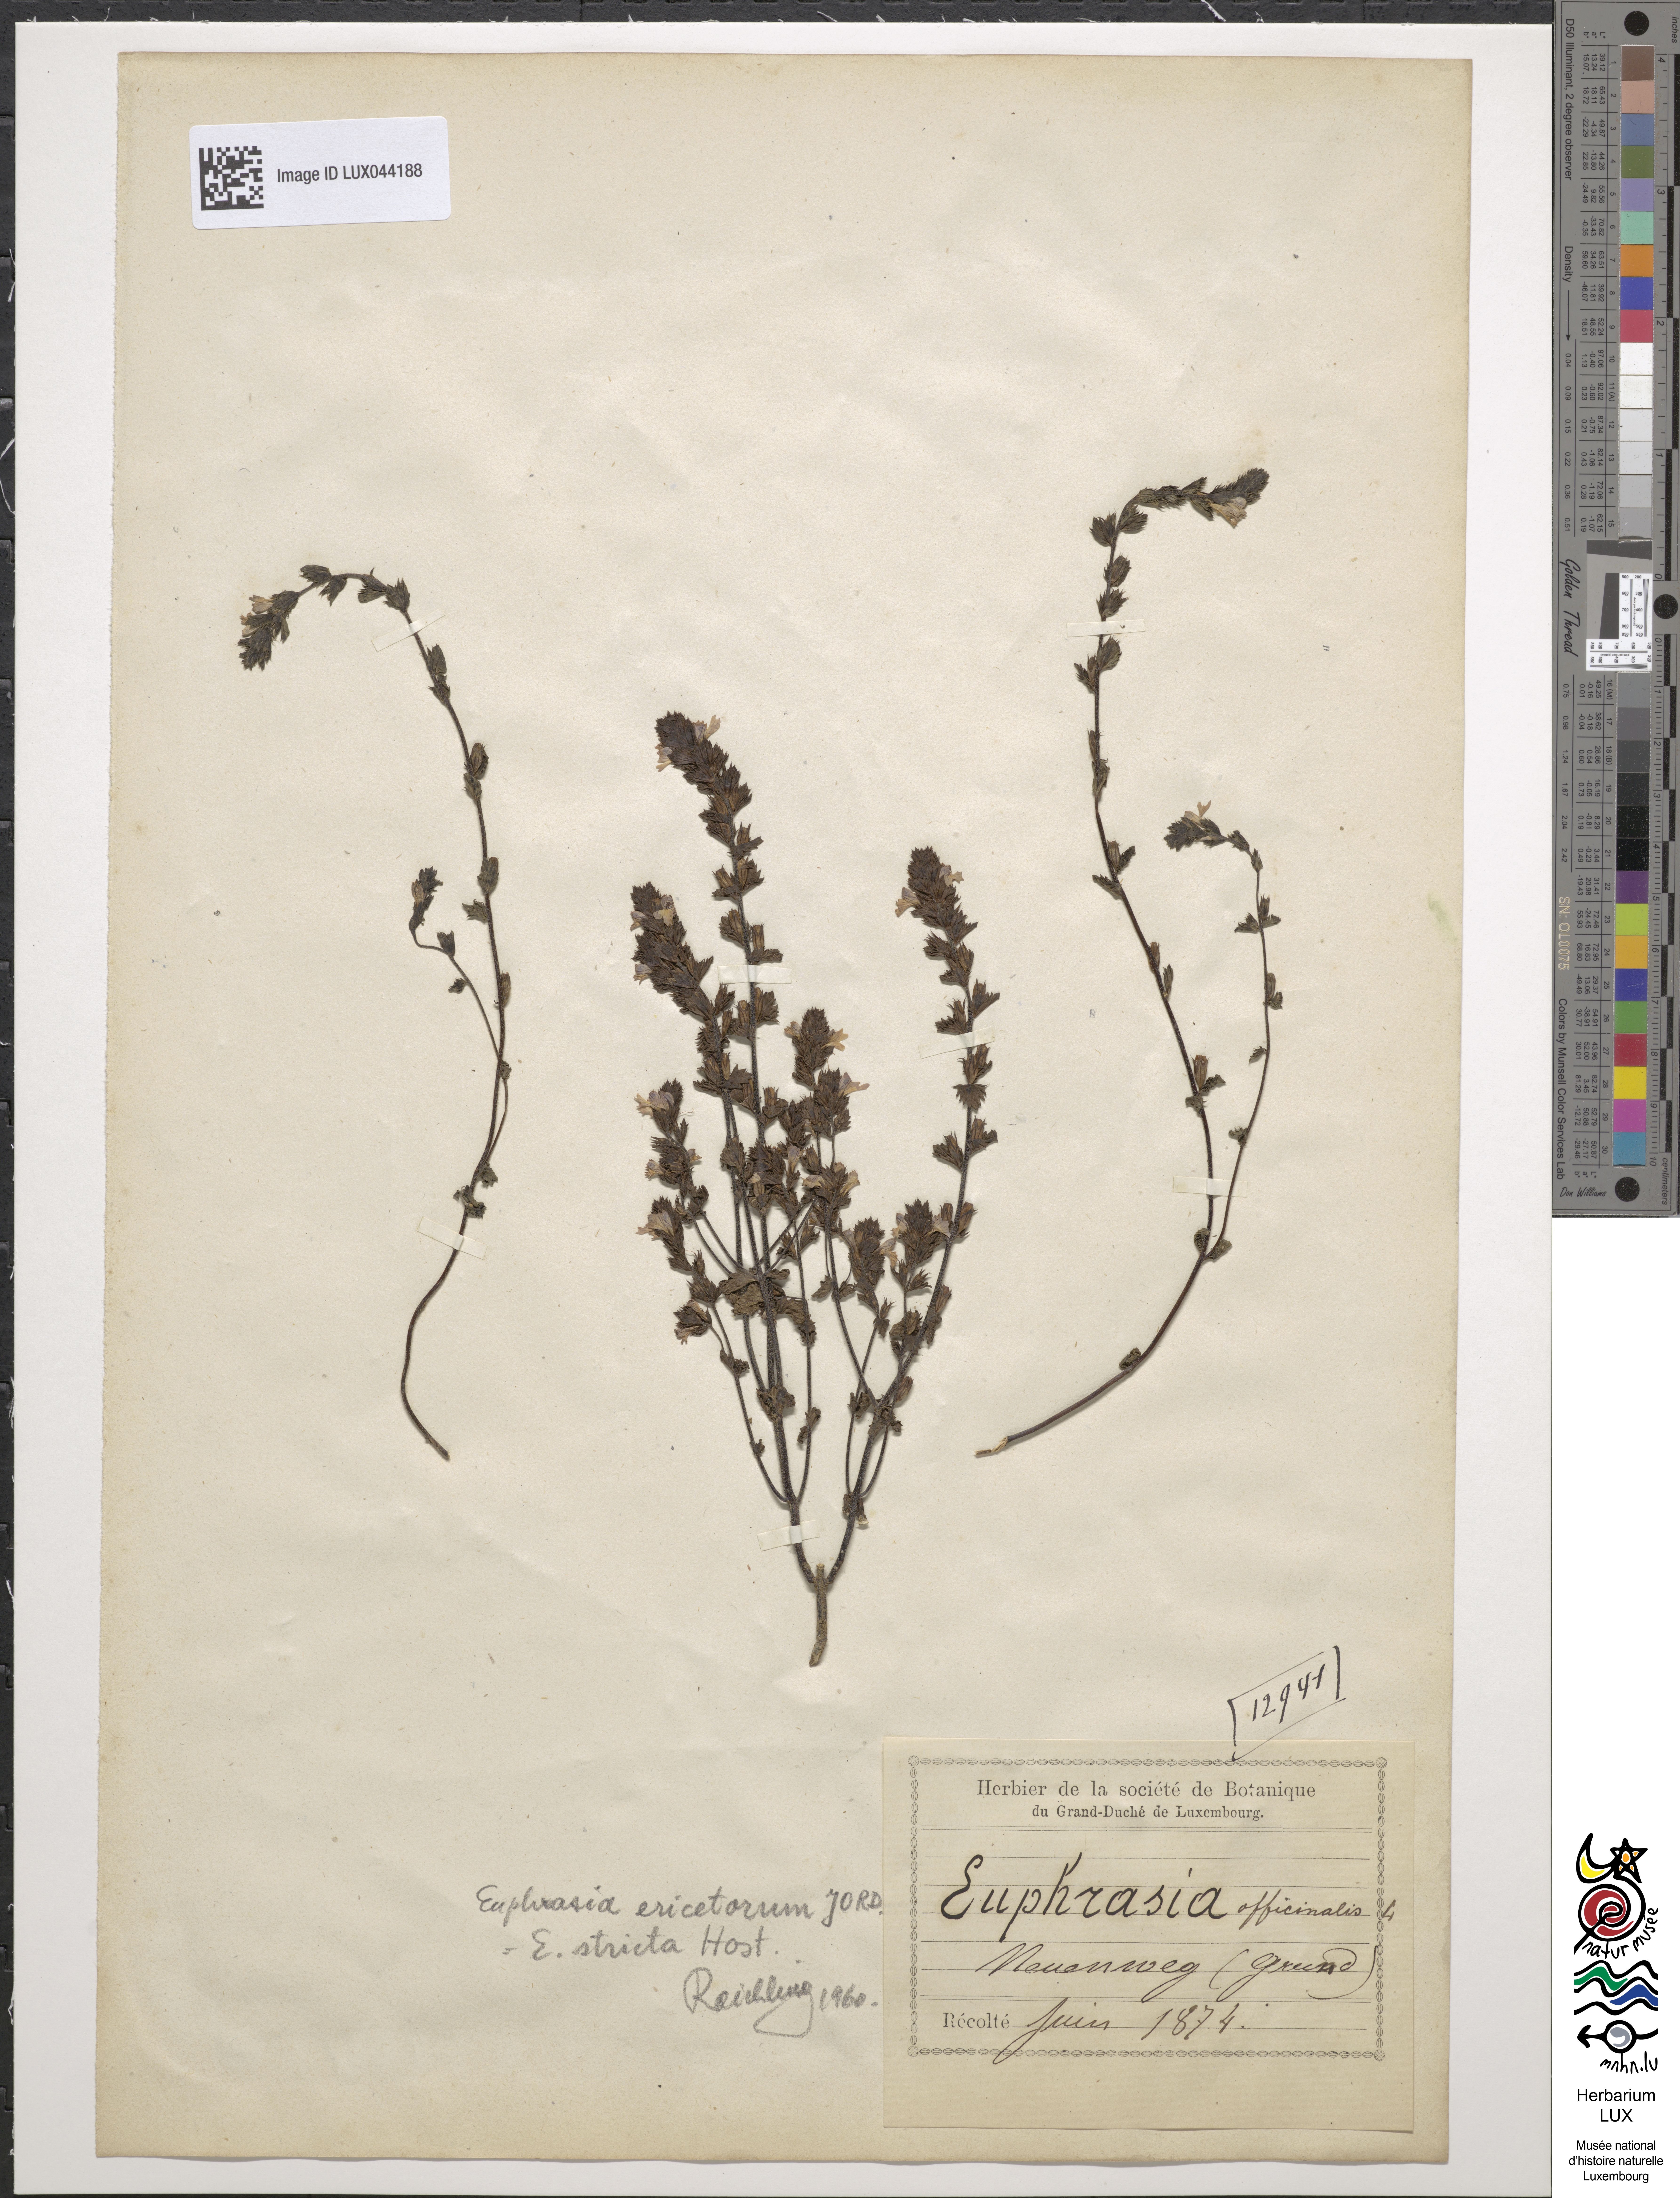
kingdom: Plantae
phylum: Tracheophyta
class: Magnoliopsida
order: Lamiales
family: Orobanchaceae
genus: Euphrasia
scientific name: Euphrasia stricta
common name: Drug eyebright
